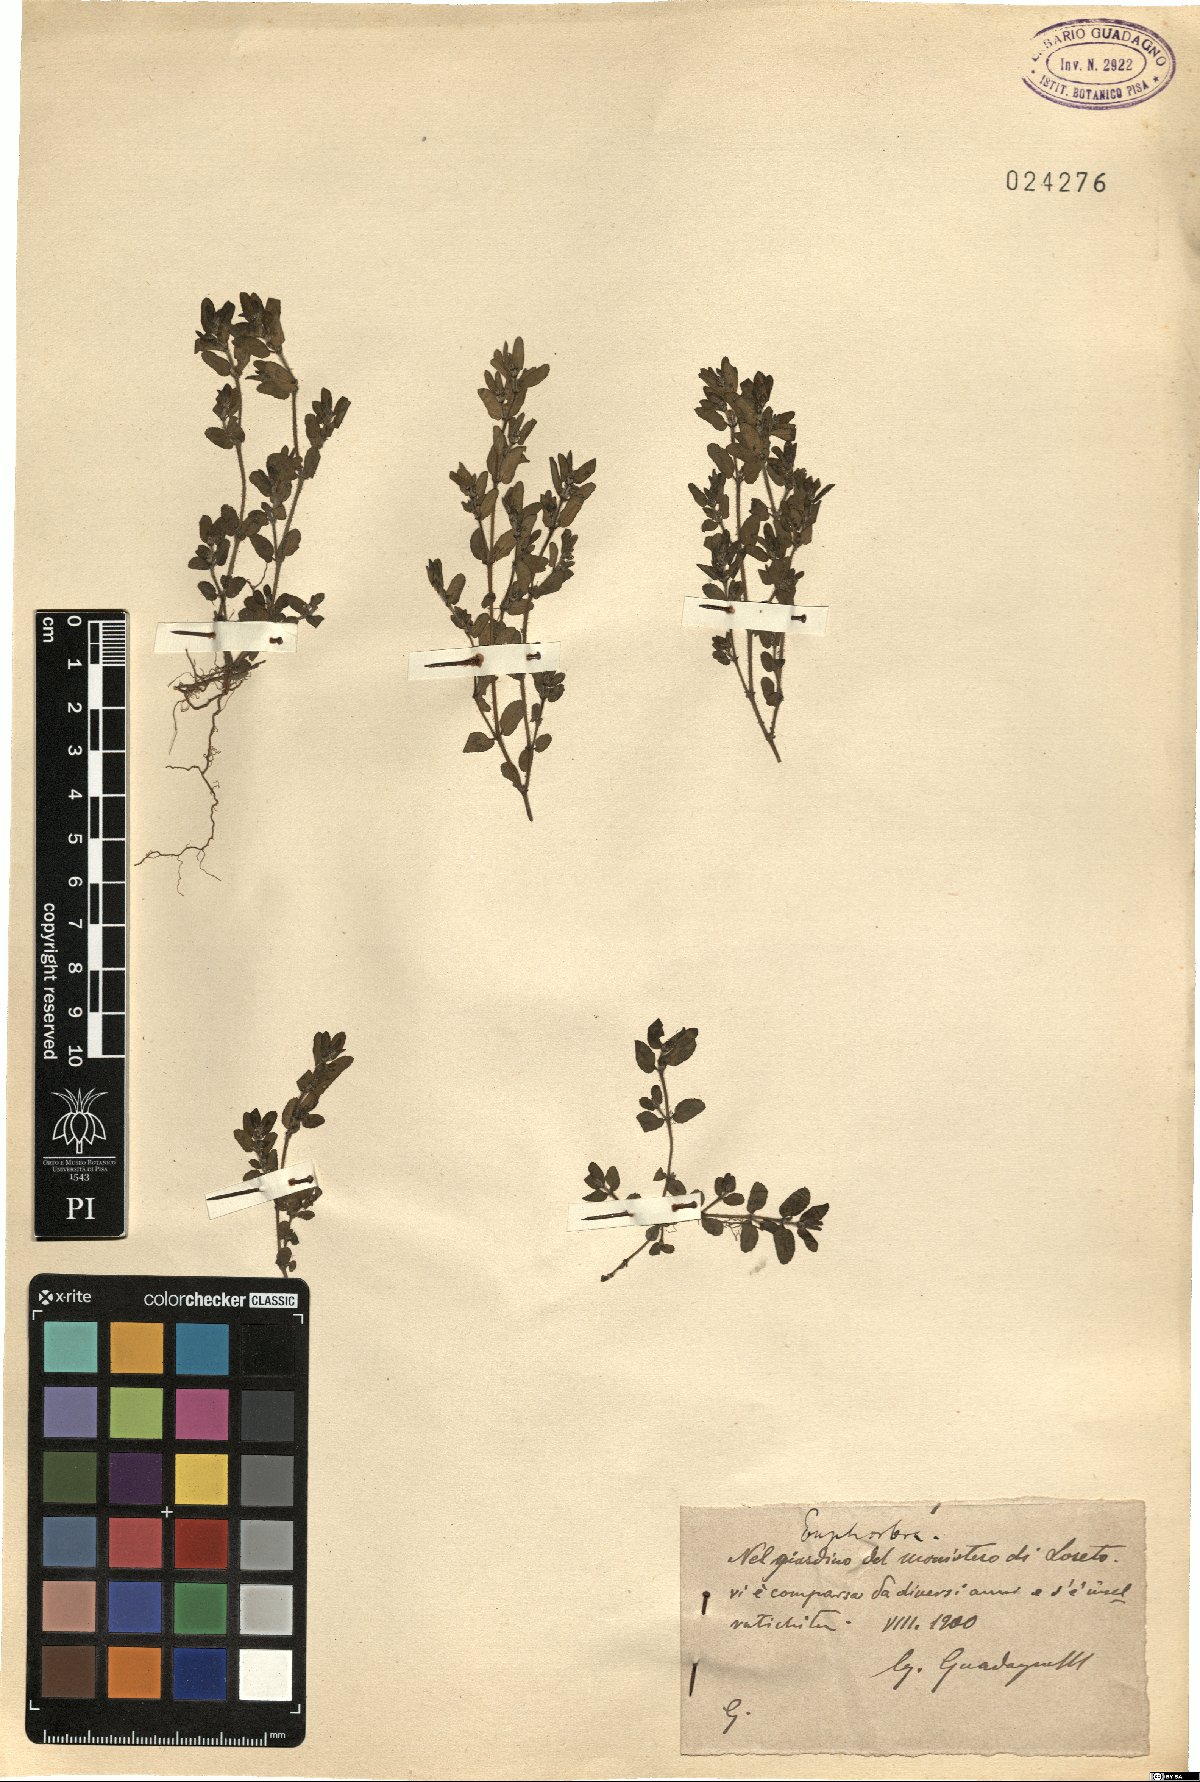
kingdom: Plantae
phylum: Tracheophyta
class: Magnoliopsida
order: Malpighiales
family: Euphorbiaceae
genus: Euphorbia
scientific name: Euphorbia
